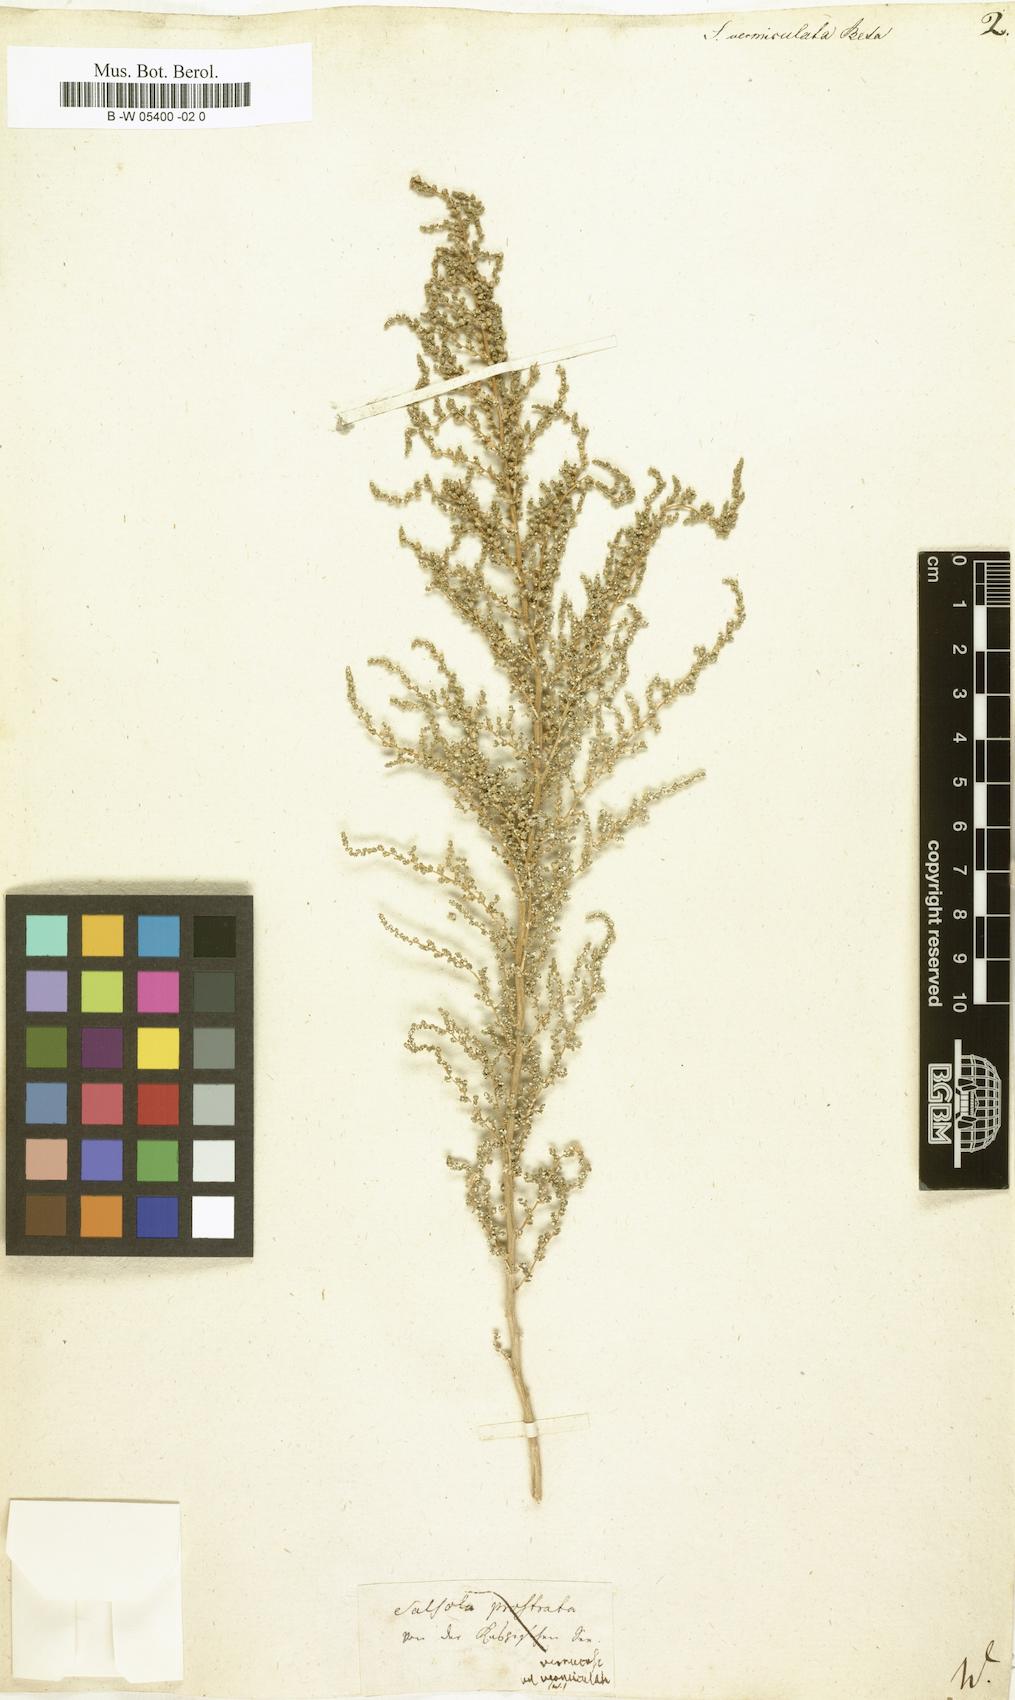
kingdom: Plantae
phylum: Tracheophyta
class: Magnoliopsida
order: Caryophyllales
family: Amaranthaceae
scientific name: Amaranthaceae
